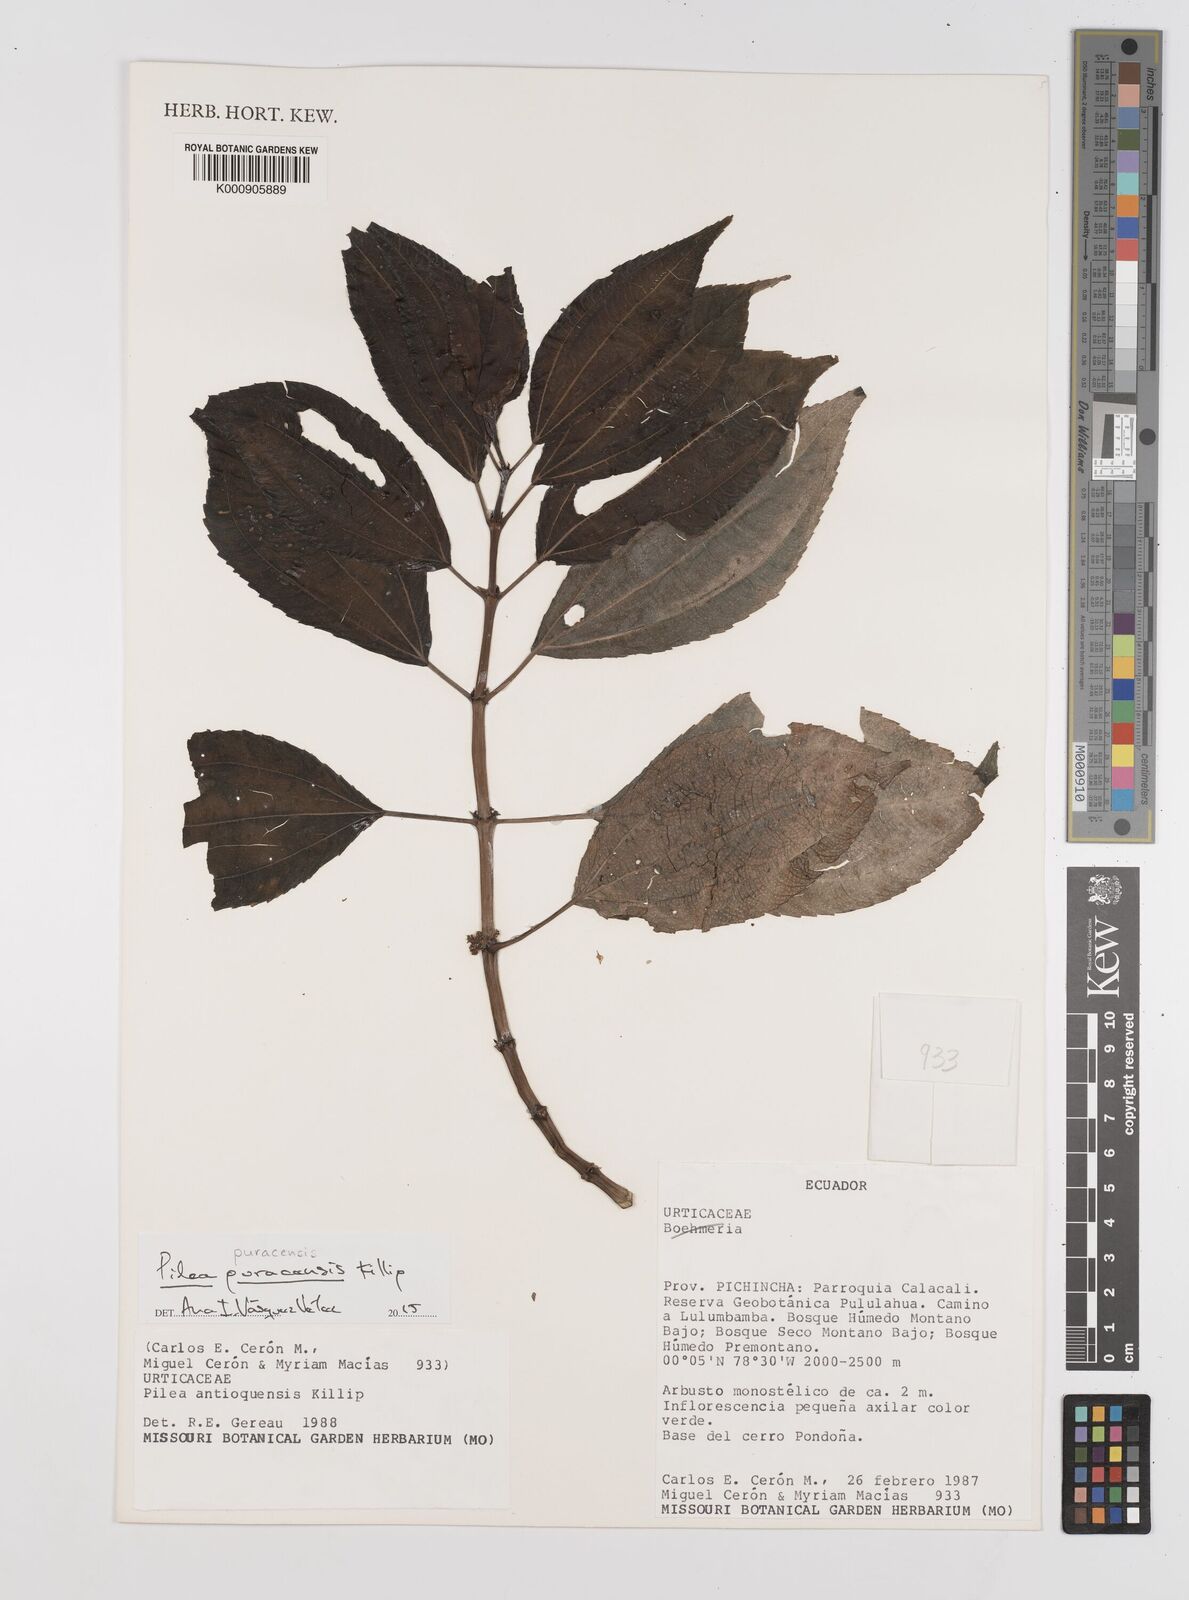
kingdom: Plantae
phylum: Tracheophyta
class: Magnoliopsida
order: Rosales
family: Urticaceae
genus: Pilea
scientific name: Pilea puracensis
